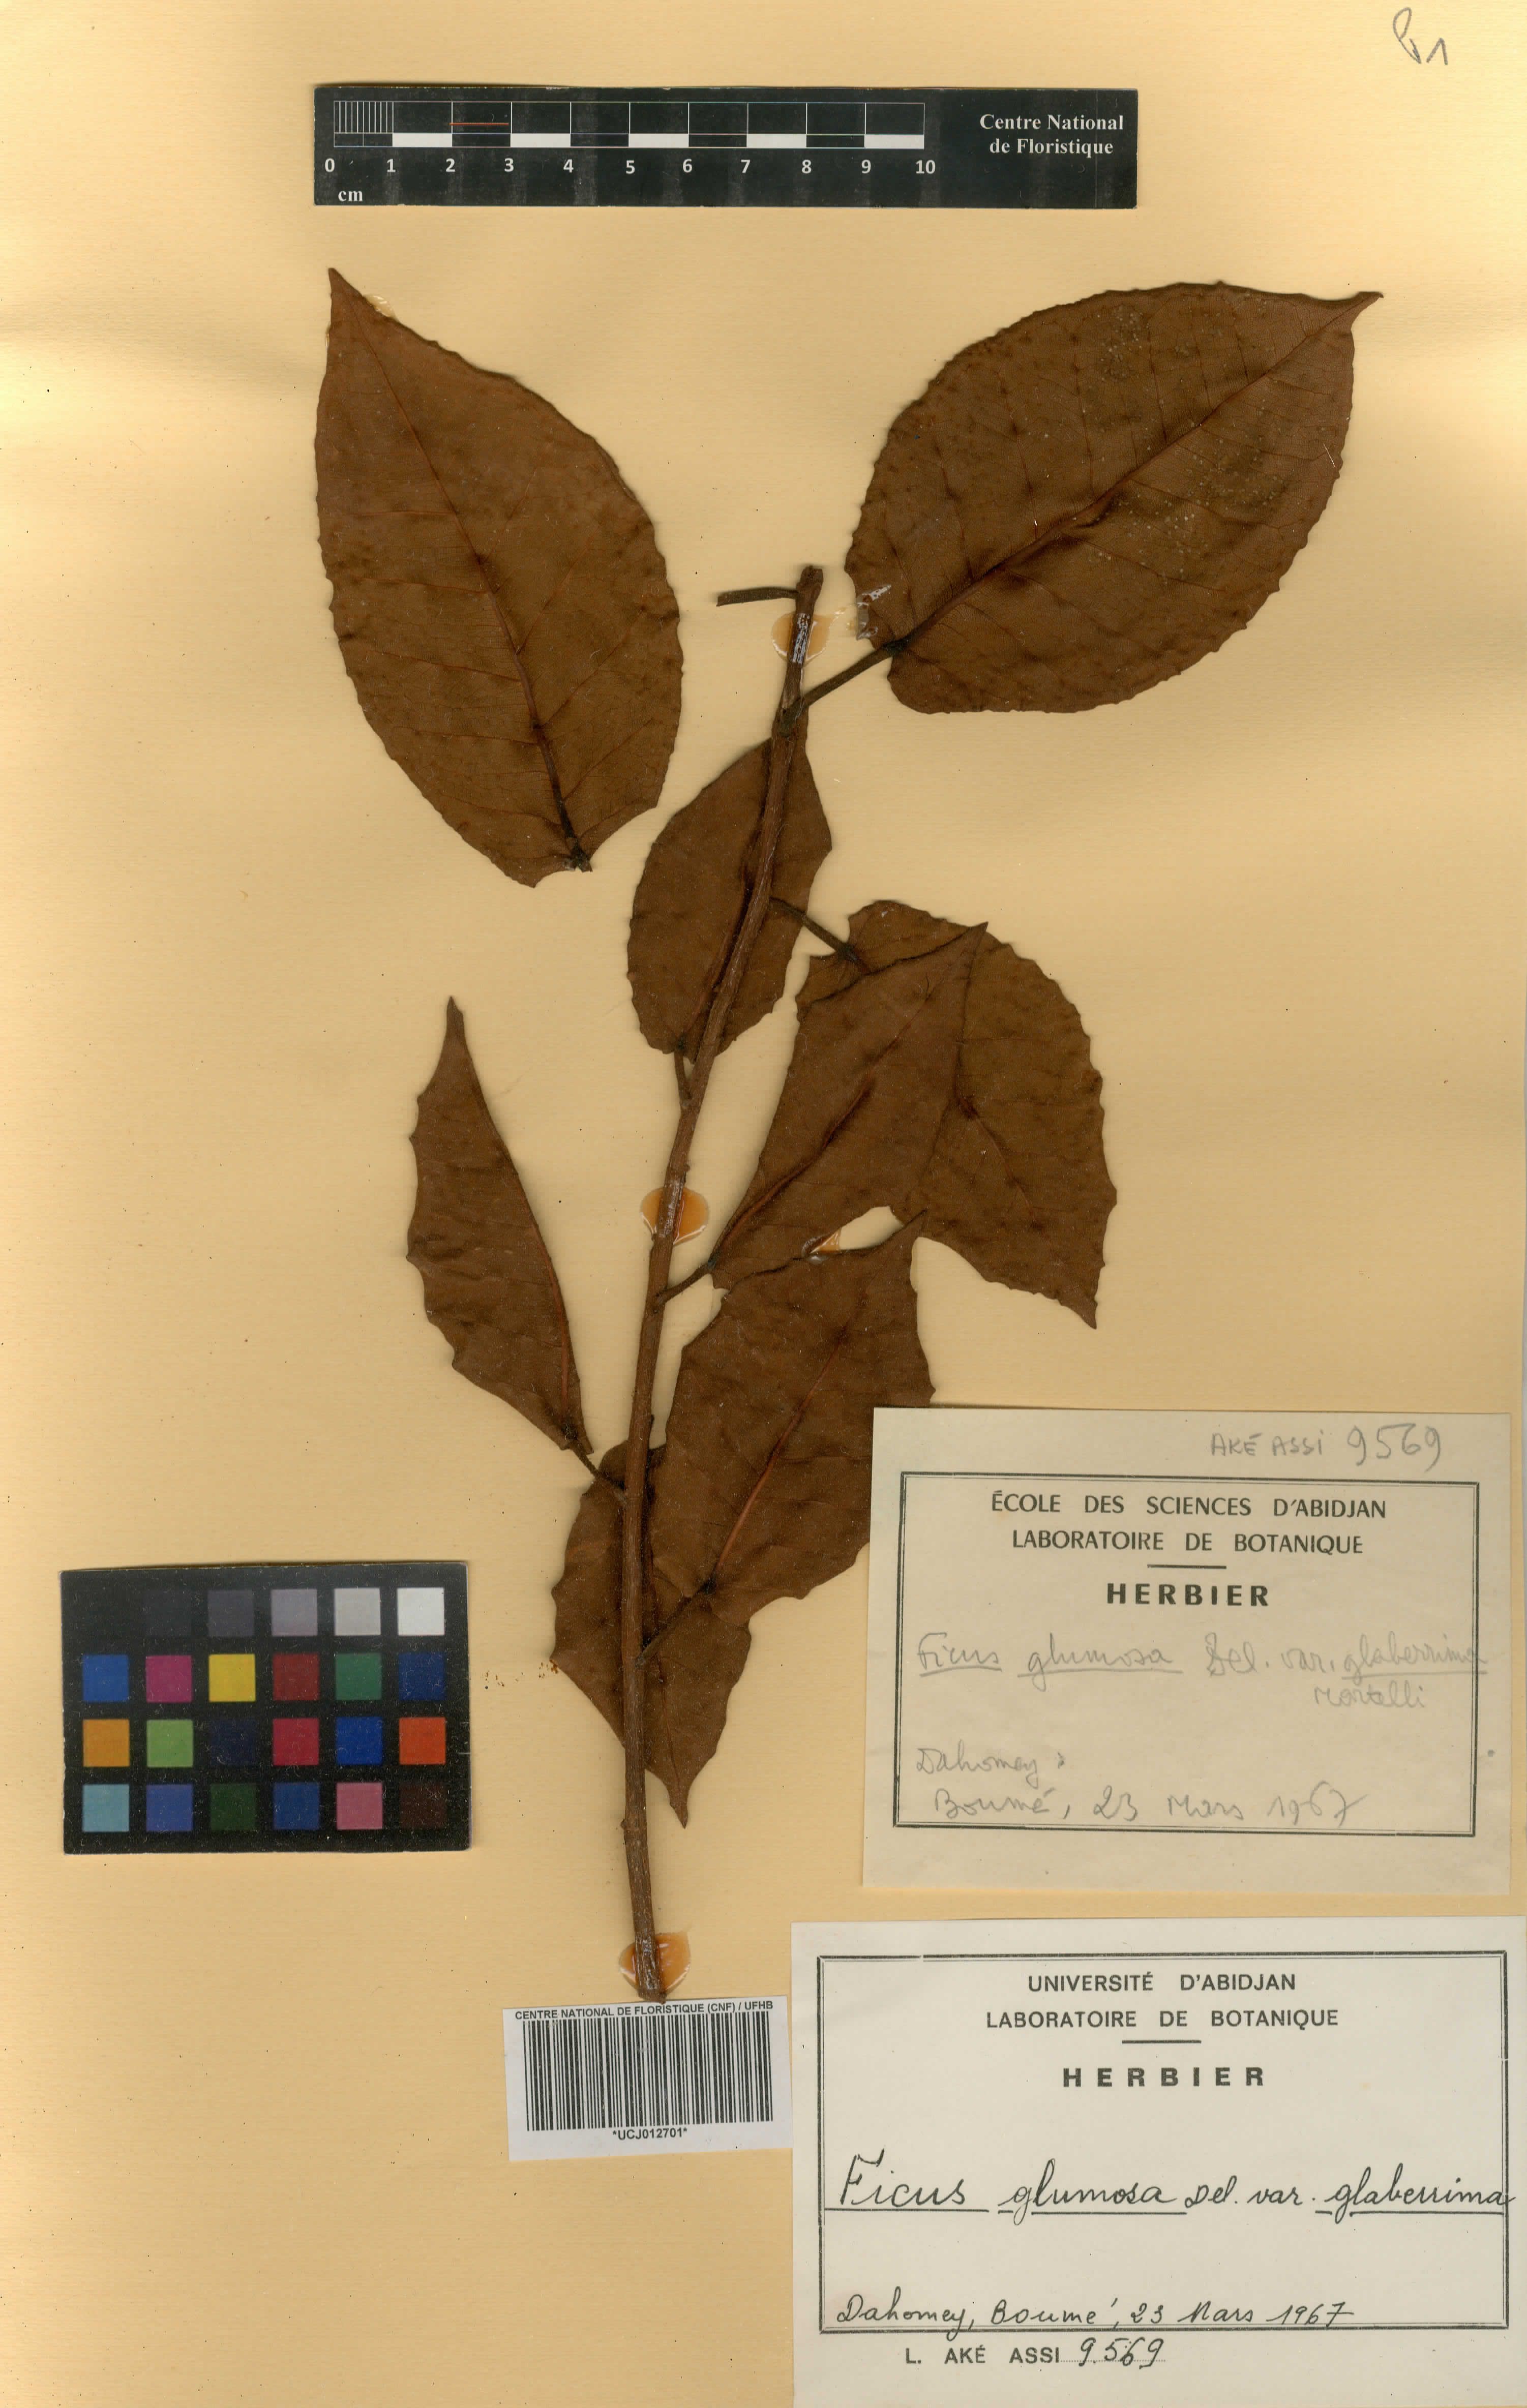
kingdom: Plantae
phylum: Tracheophyta
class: Magnoliopsida
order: Rosales
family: Moraceae
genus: Ficus
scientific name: Ficus glumosa
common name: Hairy rock fig
